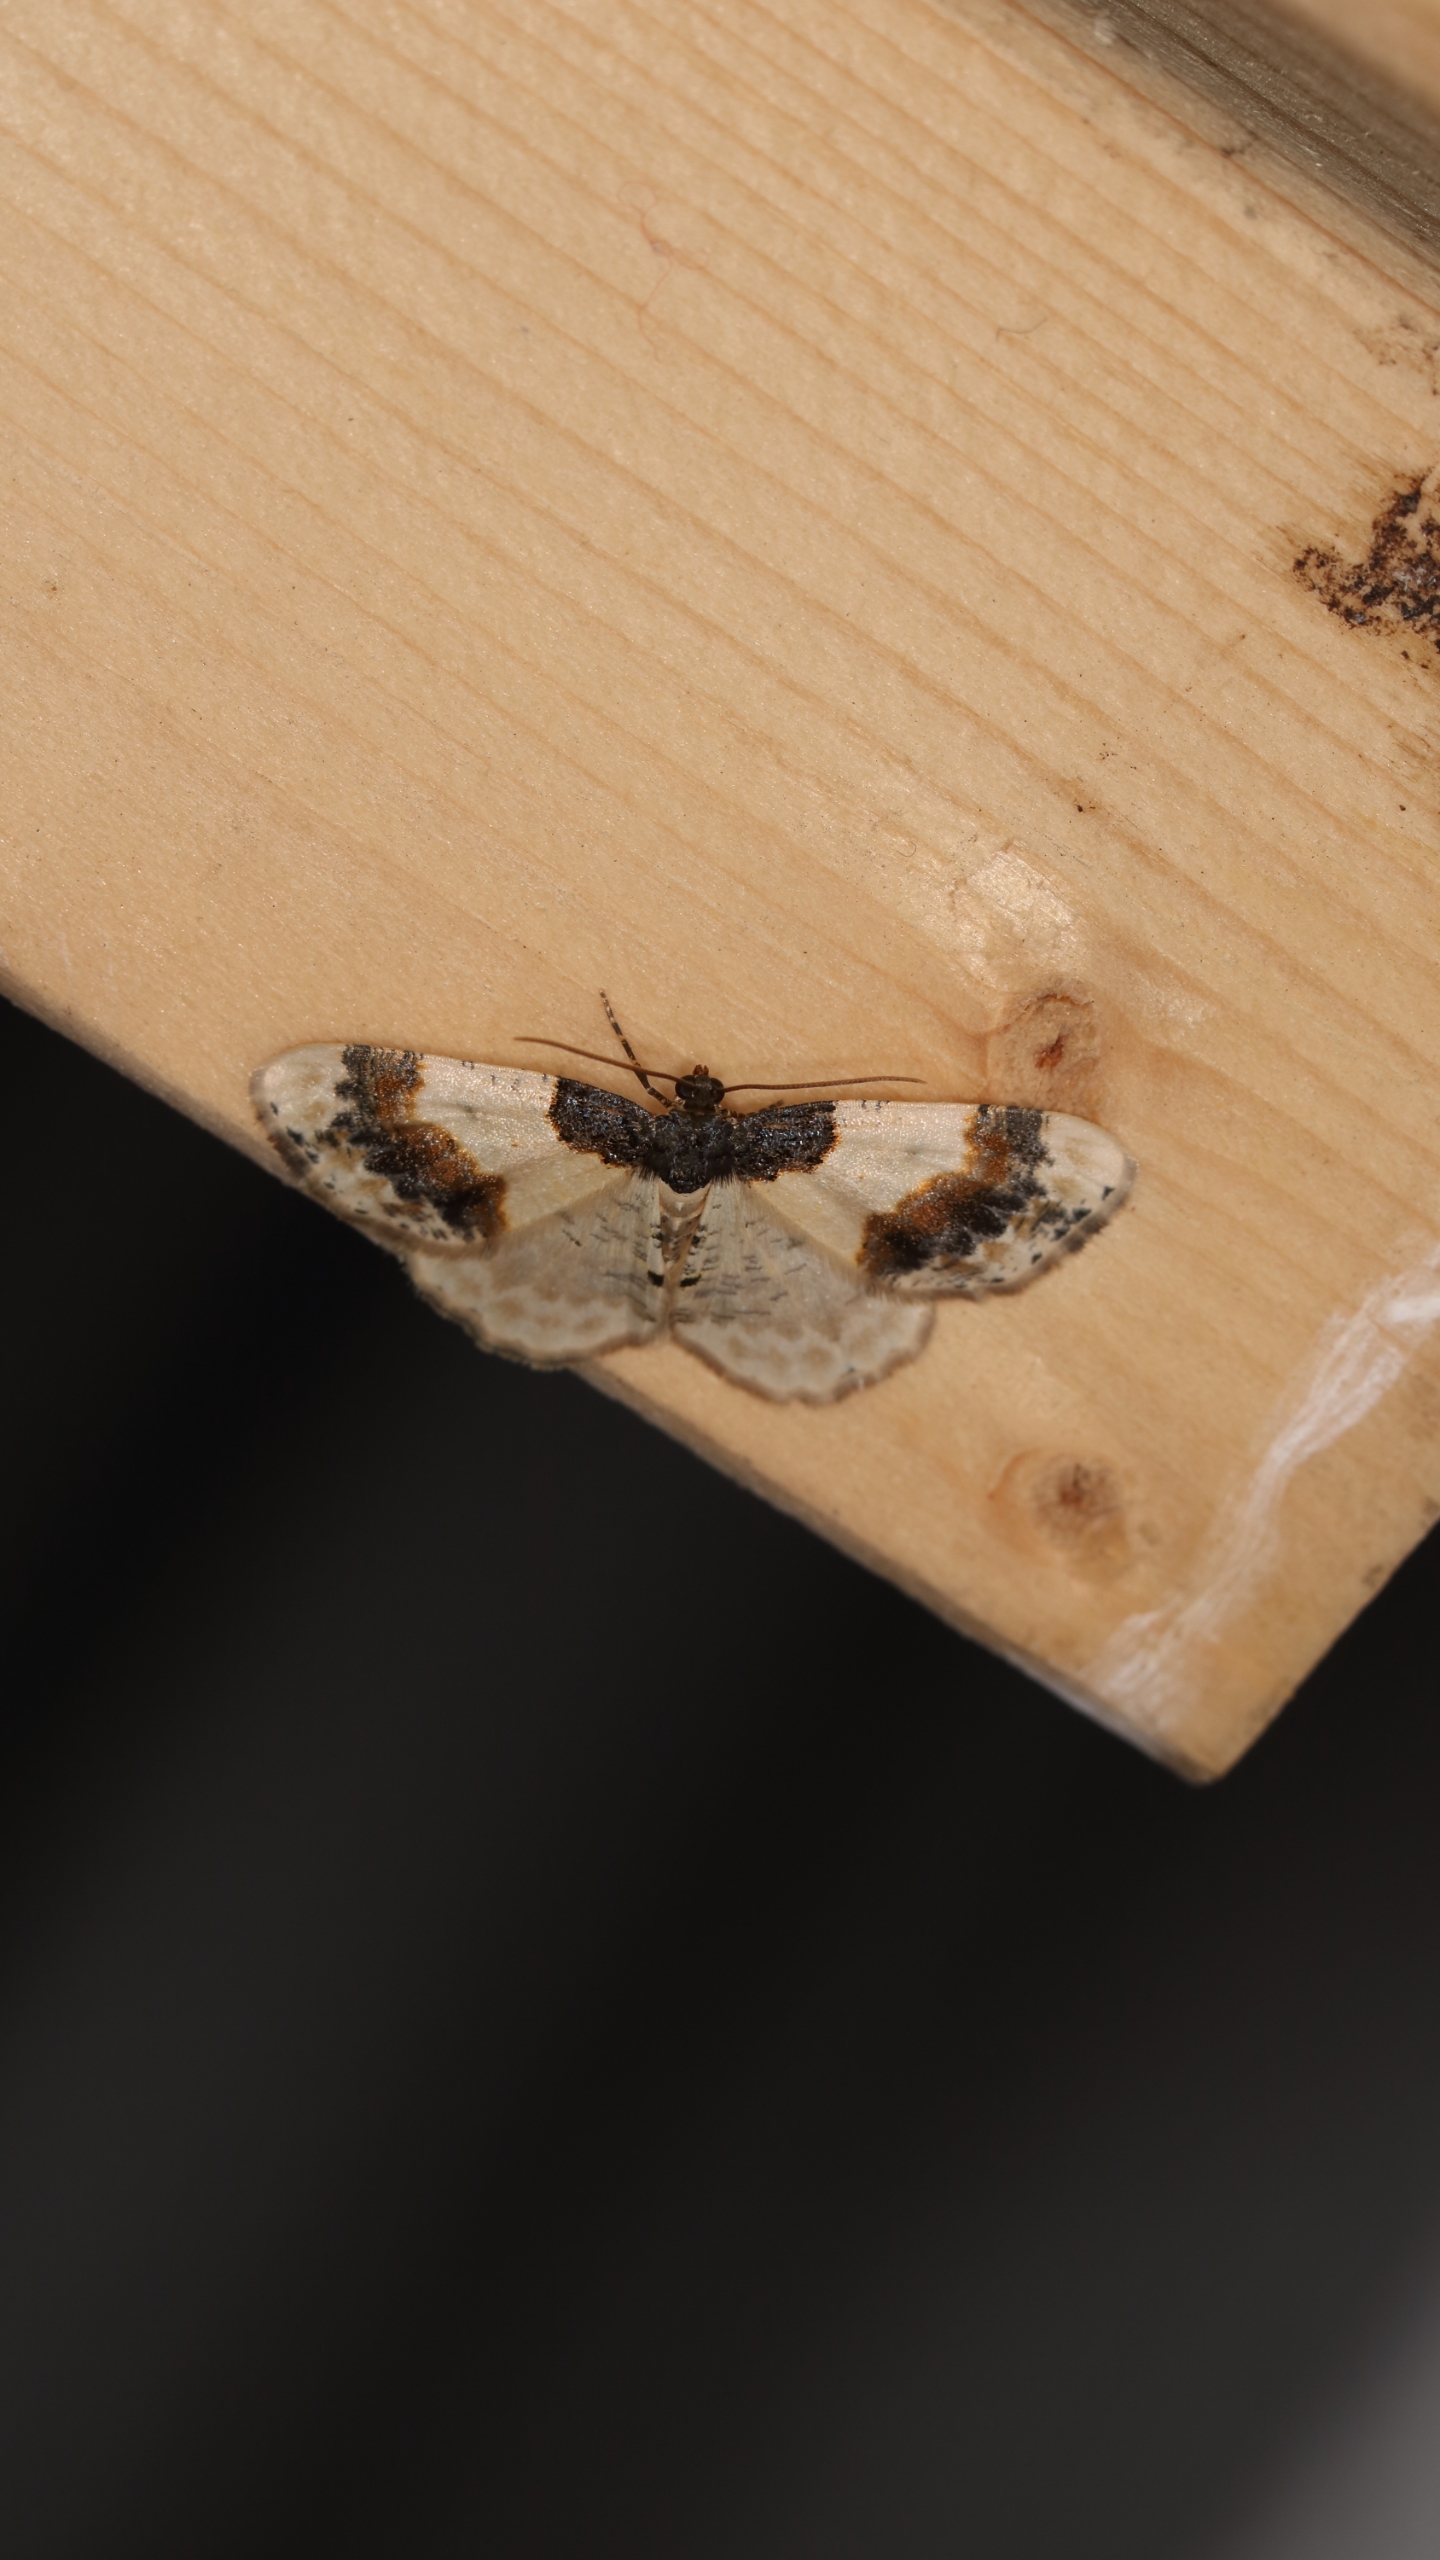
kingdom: Animalia
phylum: Arthropoda
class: Insecta
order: Lepidoptera
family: Geometridae
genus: Ligdia
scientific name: Ligdia adustata
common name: Benvedmåler
